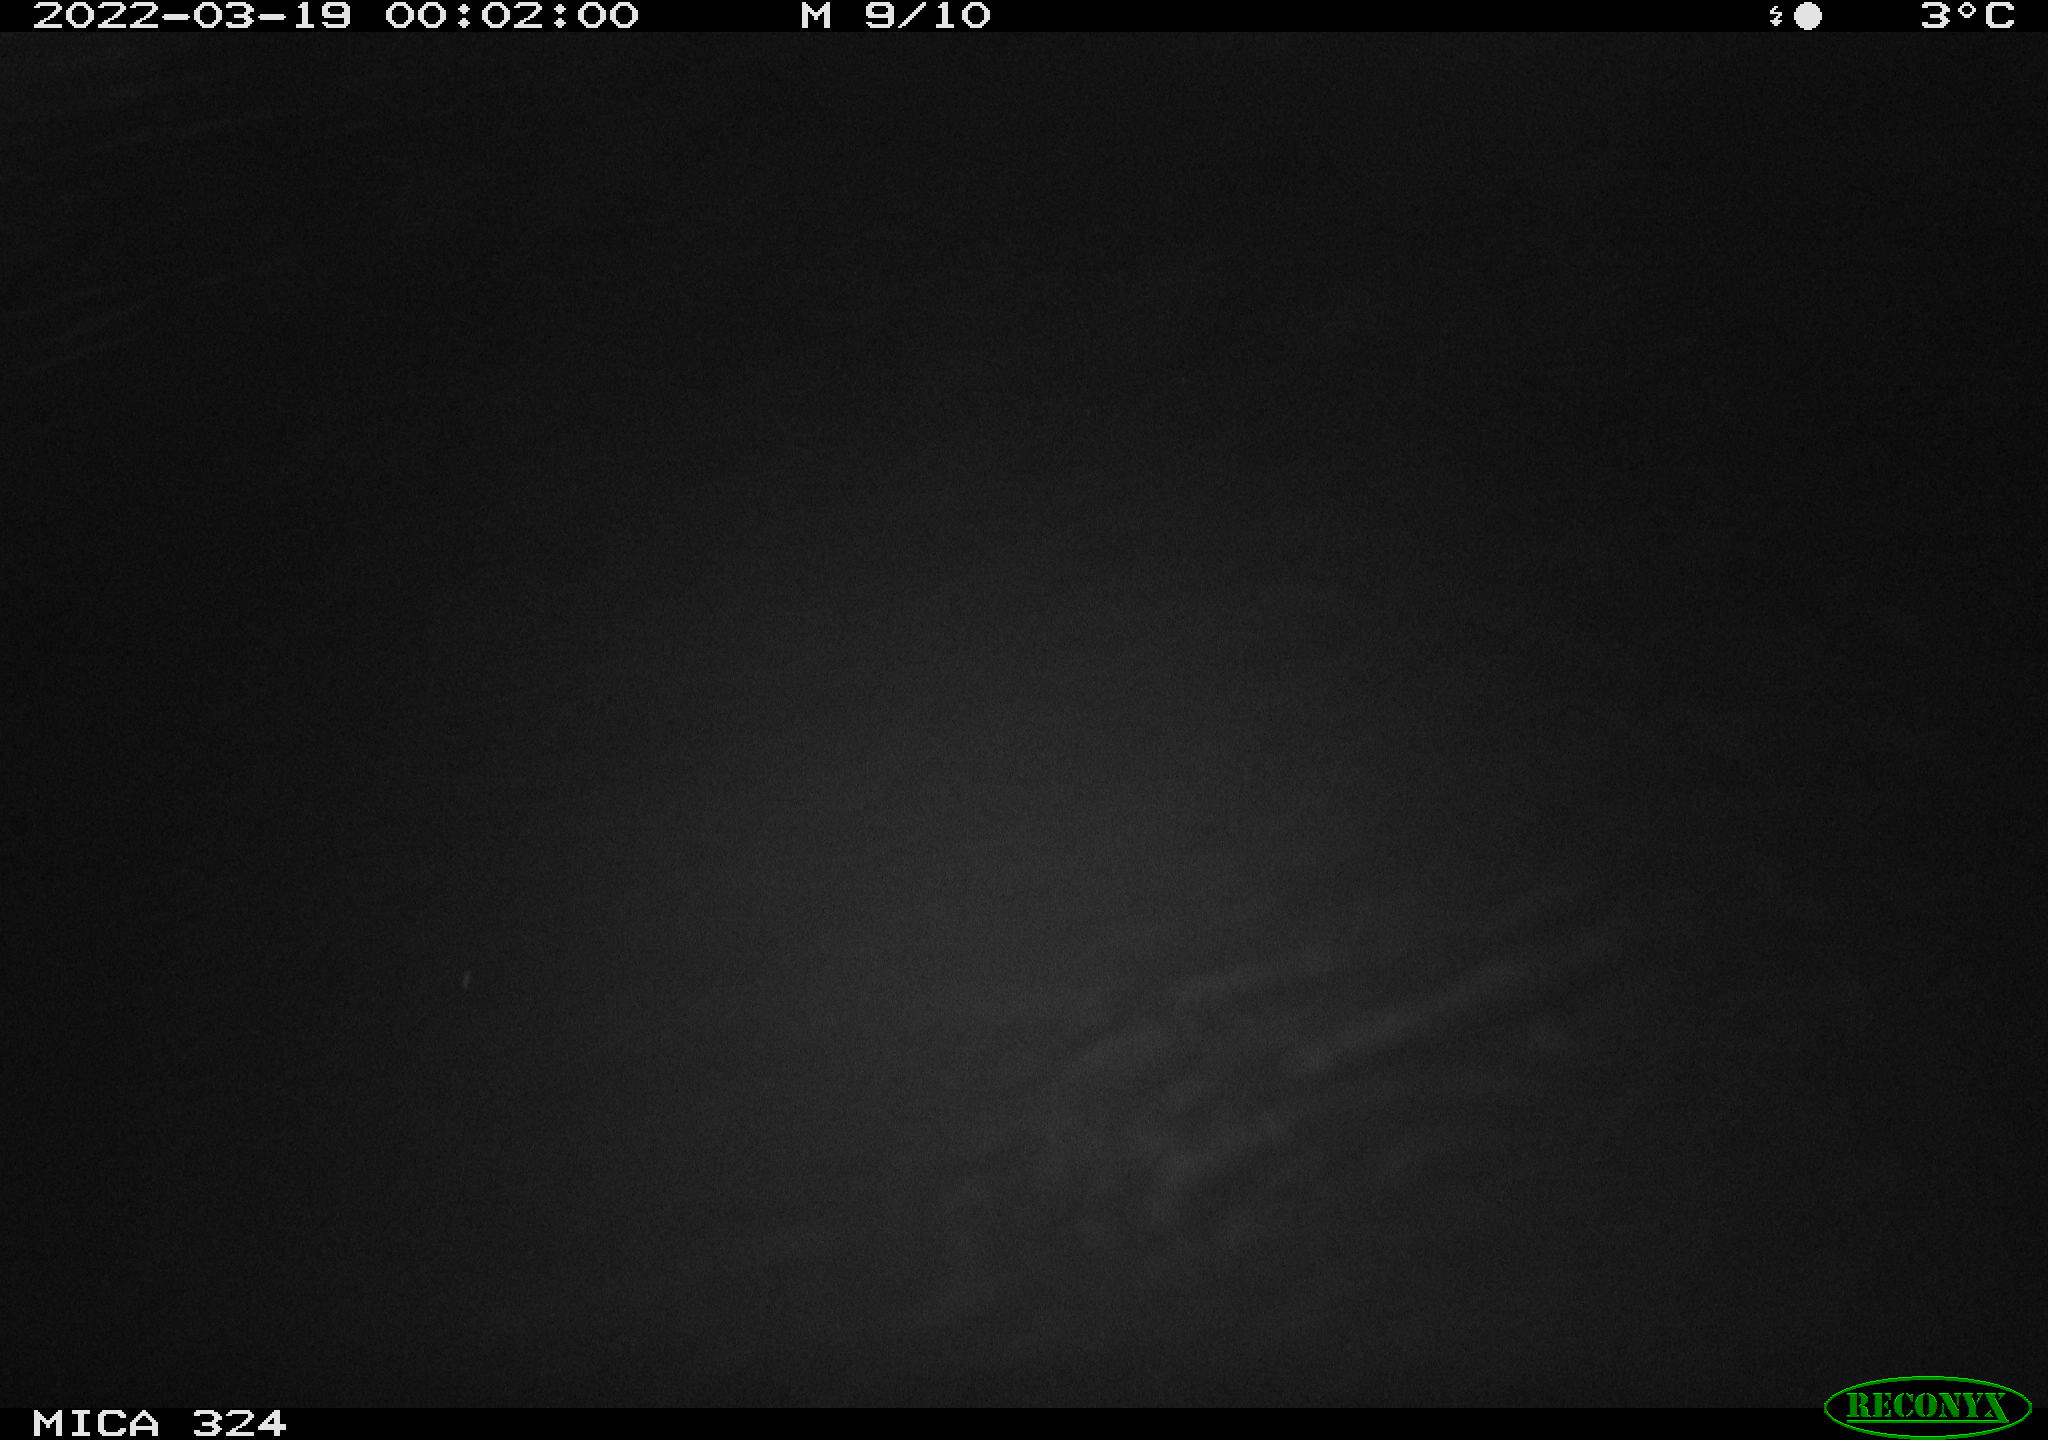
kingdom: Animalia
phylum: Chordata
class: Mammalia
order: Rodentia
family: Cricetidae
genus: Ondatra
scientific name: Ondatra zibethicus
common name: Muskrat
